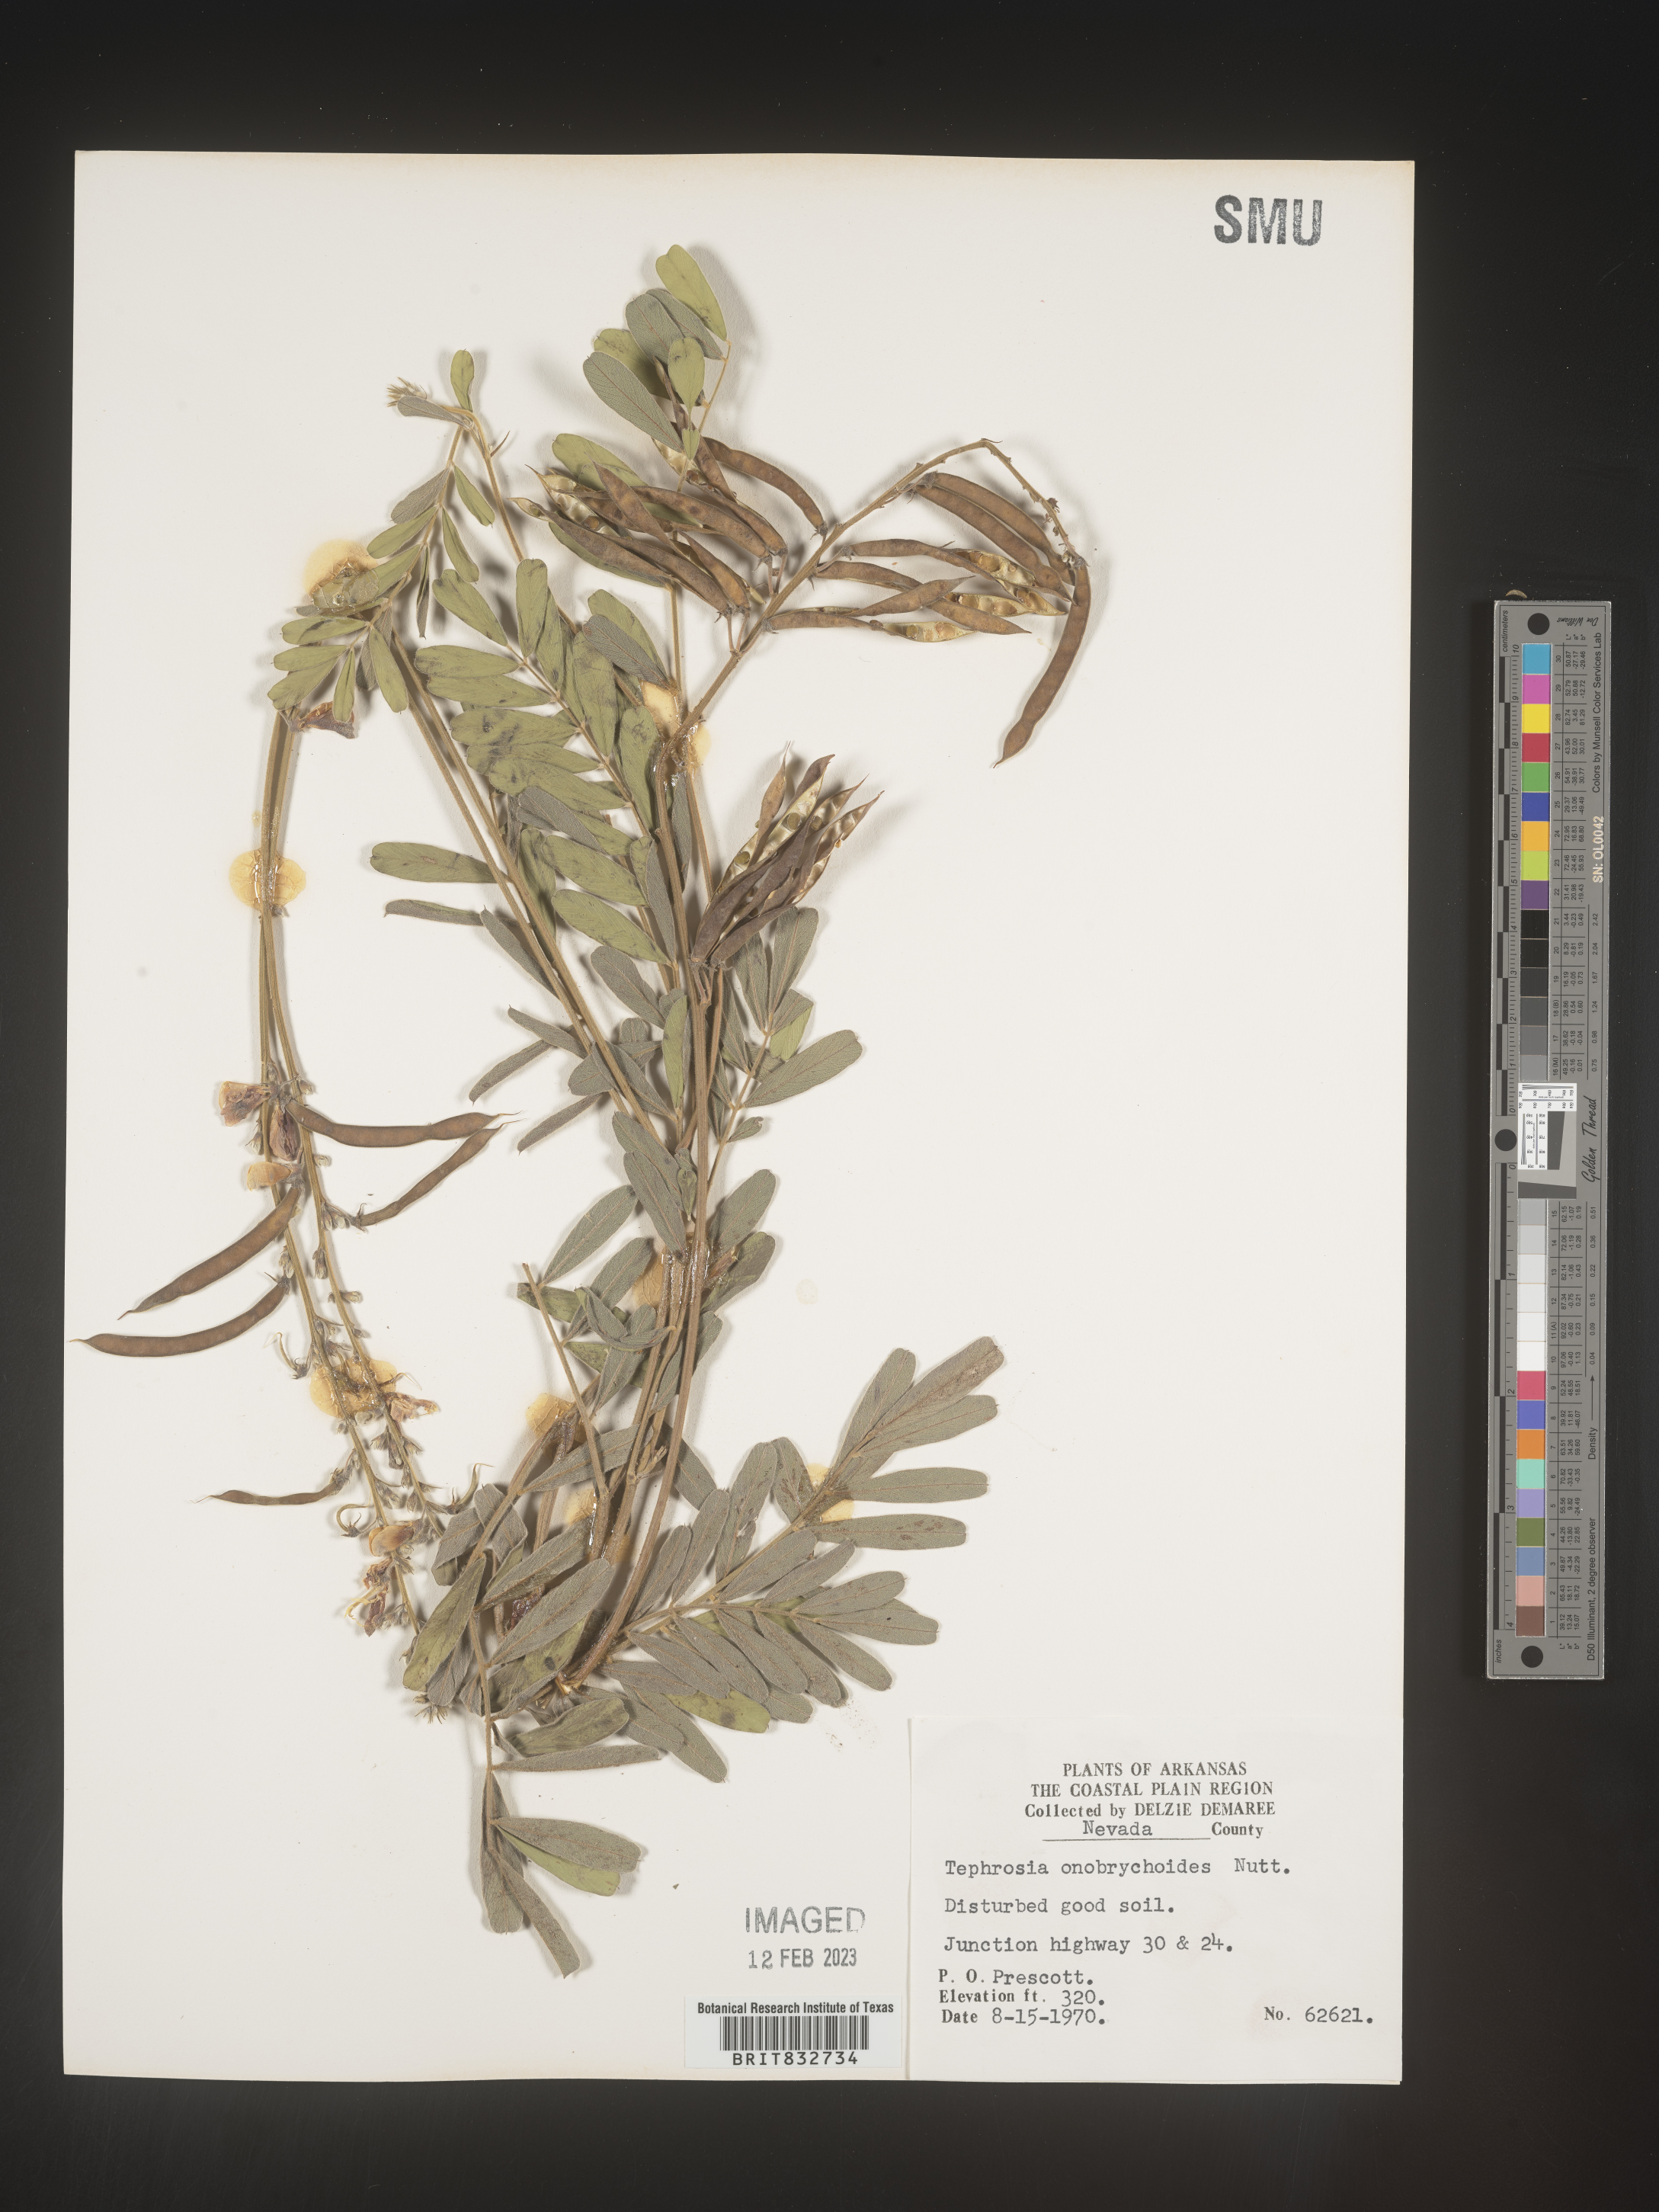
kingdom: Plantae
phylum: Tracheophyta
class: Magnoliopsida
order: Fabales
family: Fabaceae
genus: Tephrosia
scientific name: Tephrosia onobrychoides
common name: Multi-bloom hoary-pea
